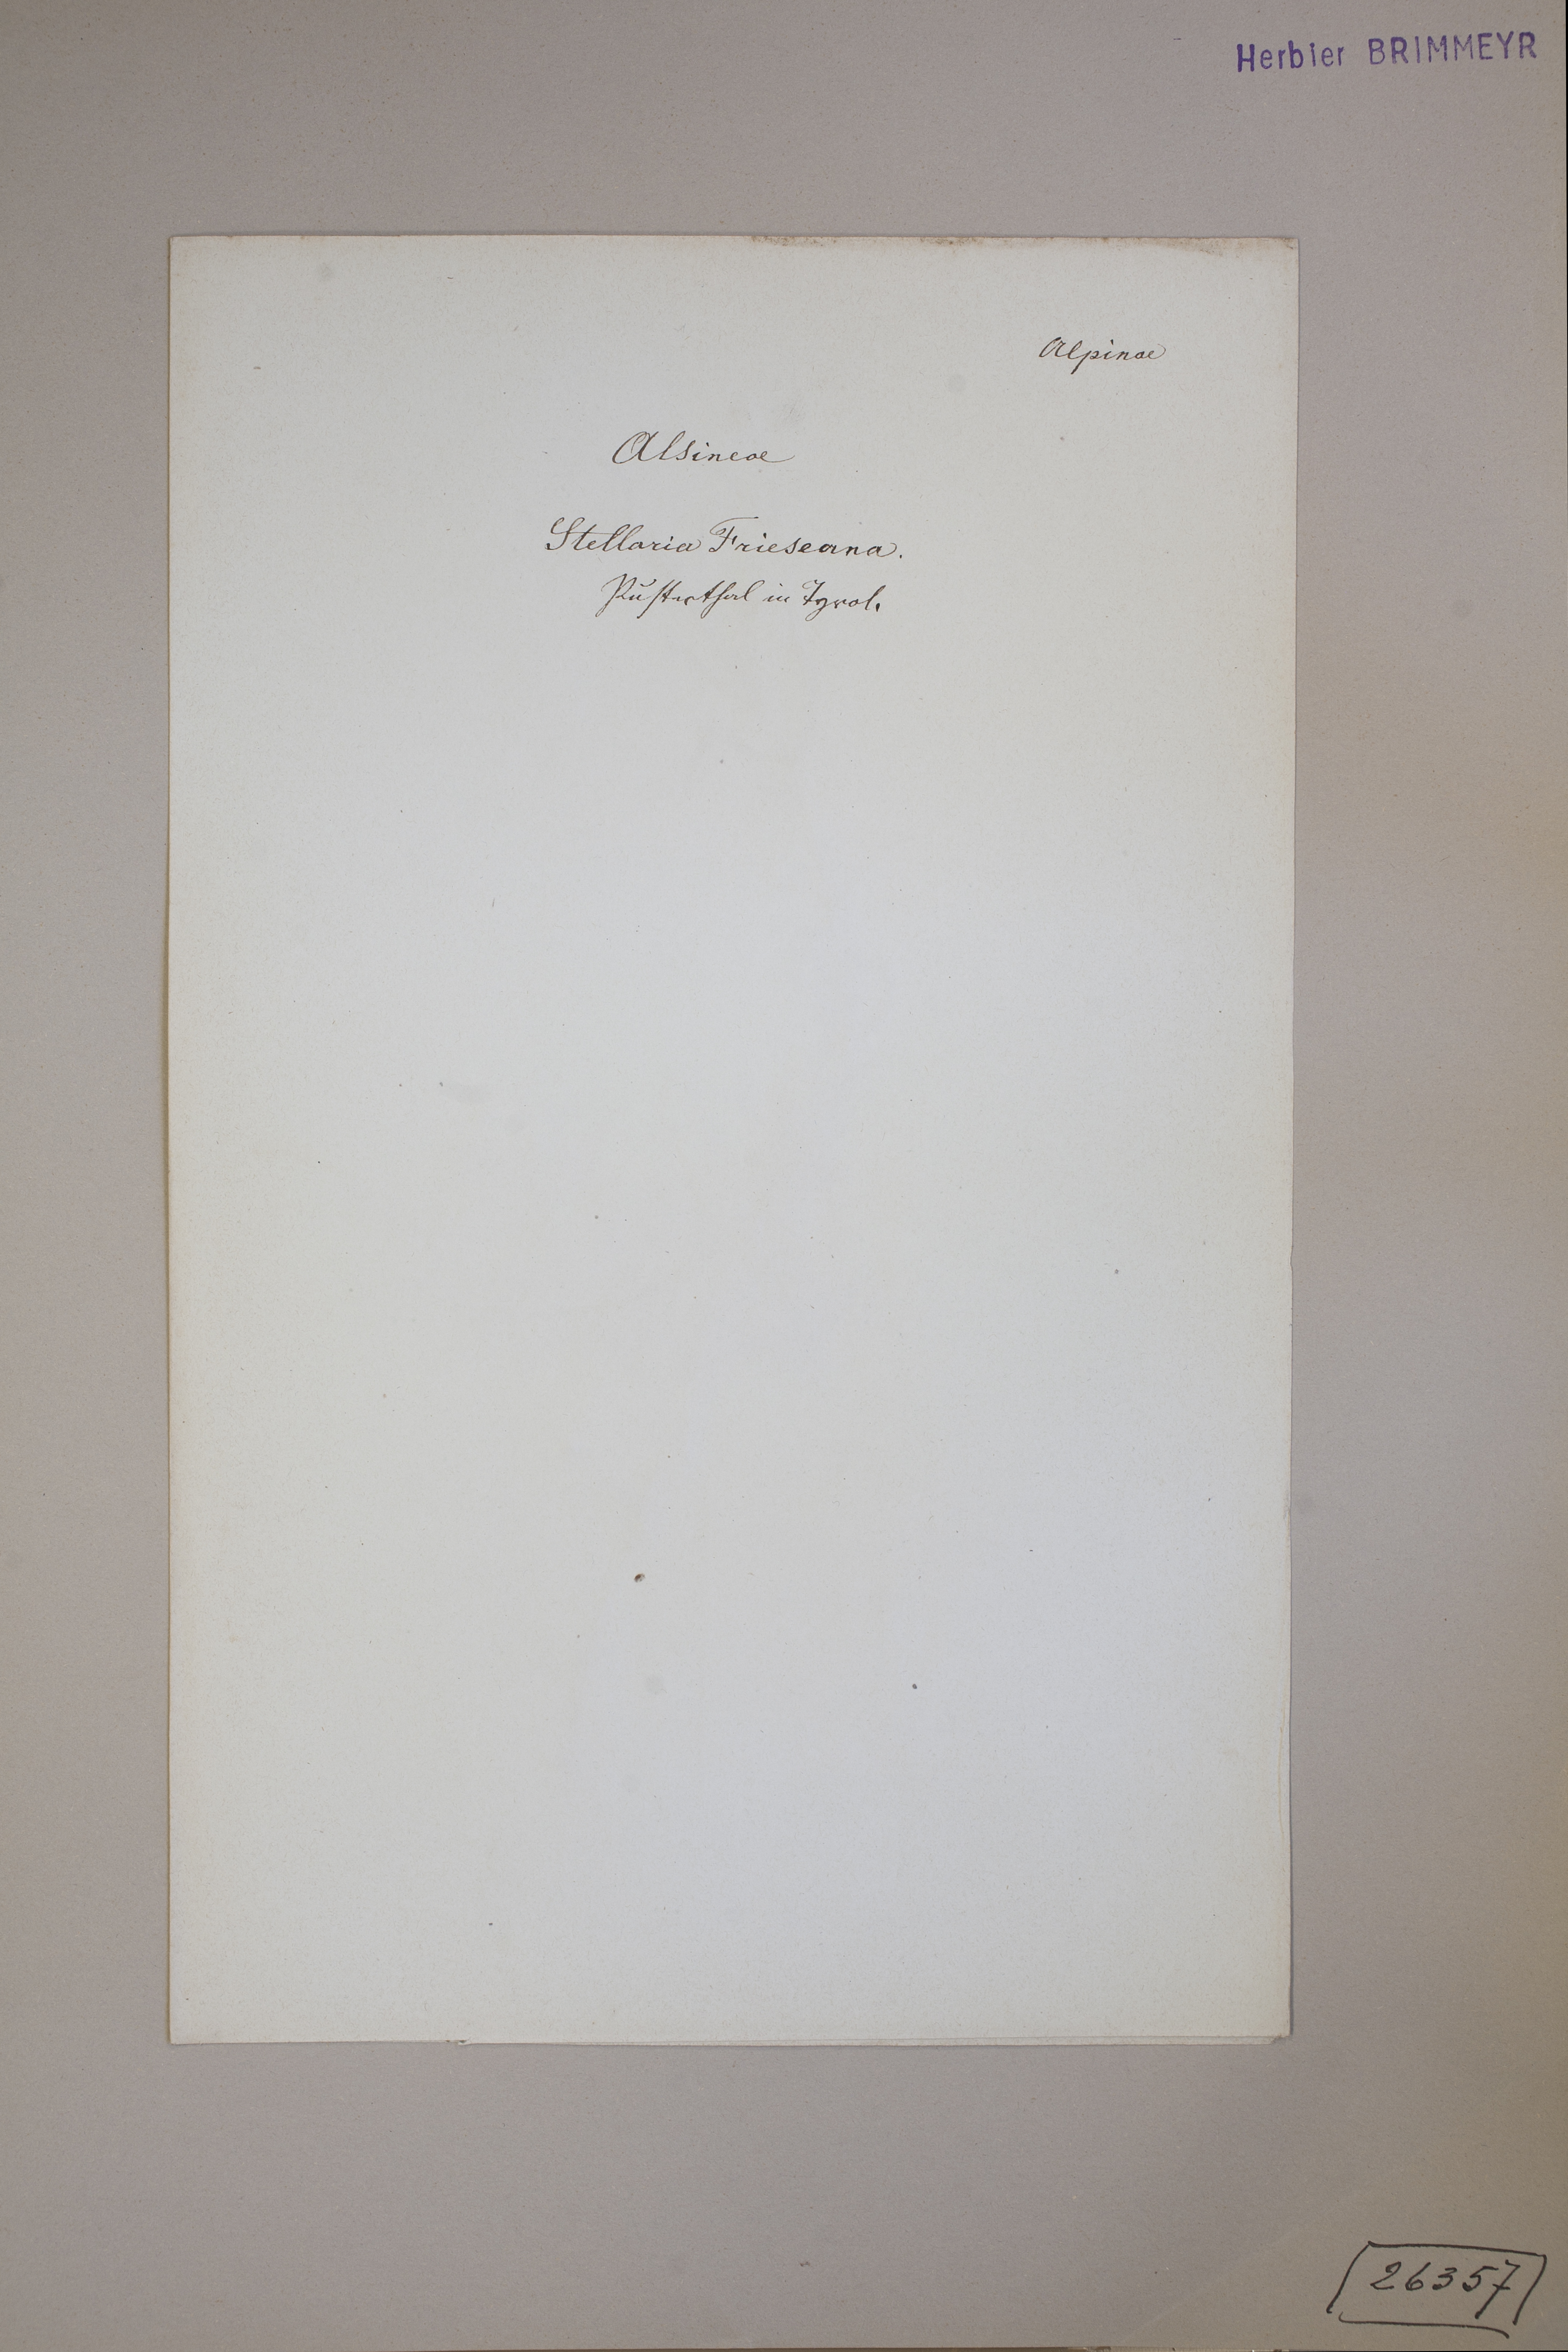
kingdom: Plantae
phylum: Tracheophyta
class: Magnoliopsida
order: Caryophyllales
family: Caryophyllaceae
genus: Stellaria
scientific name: Stellaria longifolia
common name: Long-leaved chickweed
